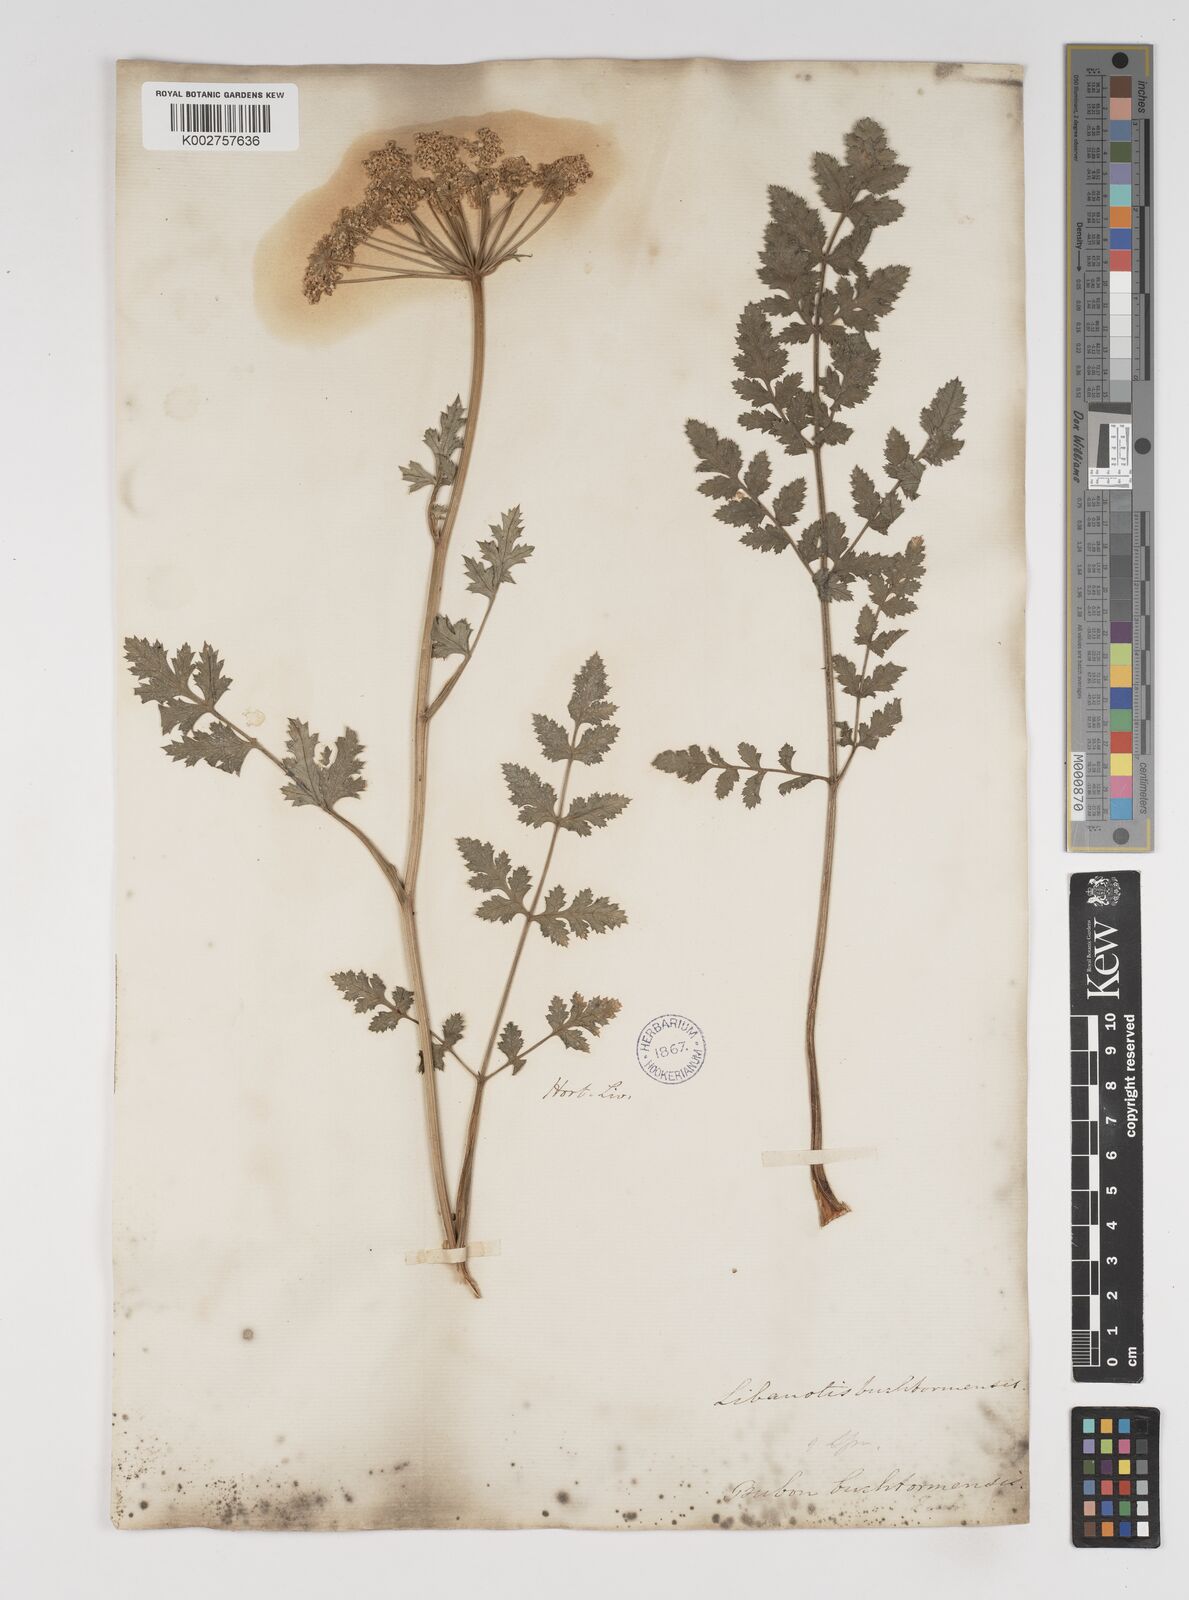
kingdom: Plantae
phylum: Tracheophyta
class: Magnoliopsida
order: Apiales
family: Apiaceae
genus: Seseli
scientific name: Seseli buchtormense
